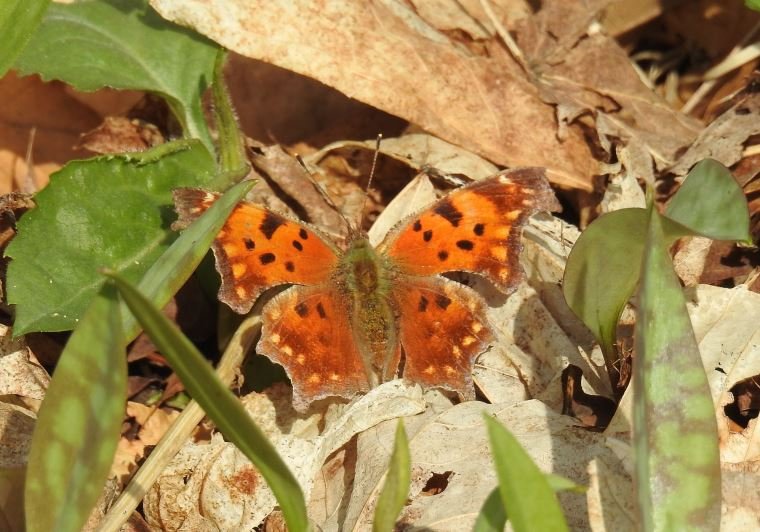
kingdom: Animalia
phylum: Arthropoda
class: Insecta
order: Lepidoptera
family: Nymphalidae
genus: Polygonia
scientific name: Polygonia comma
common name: Eastern Comma
